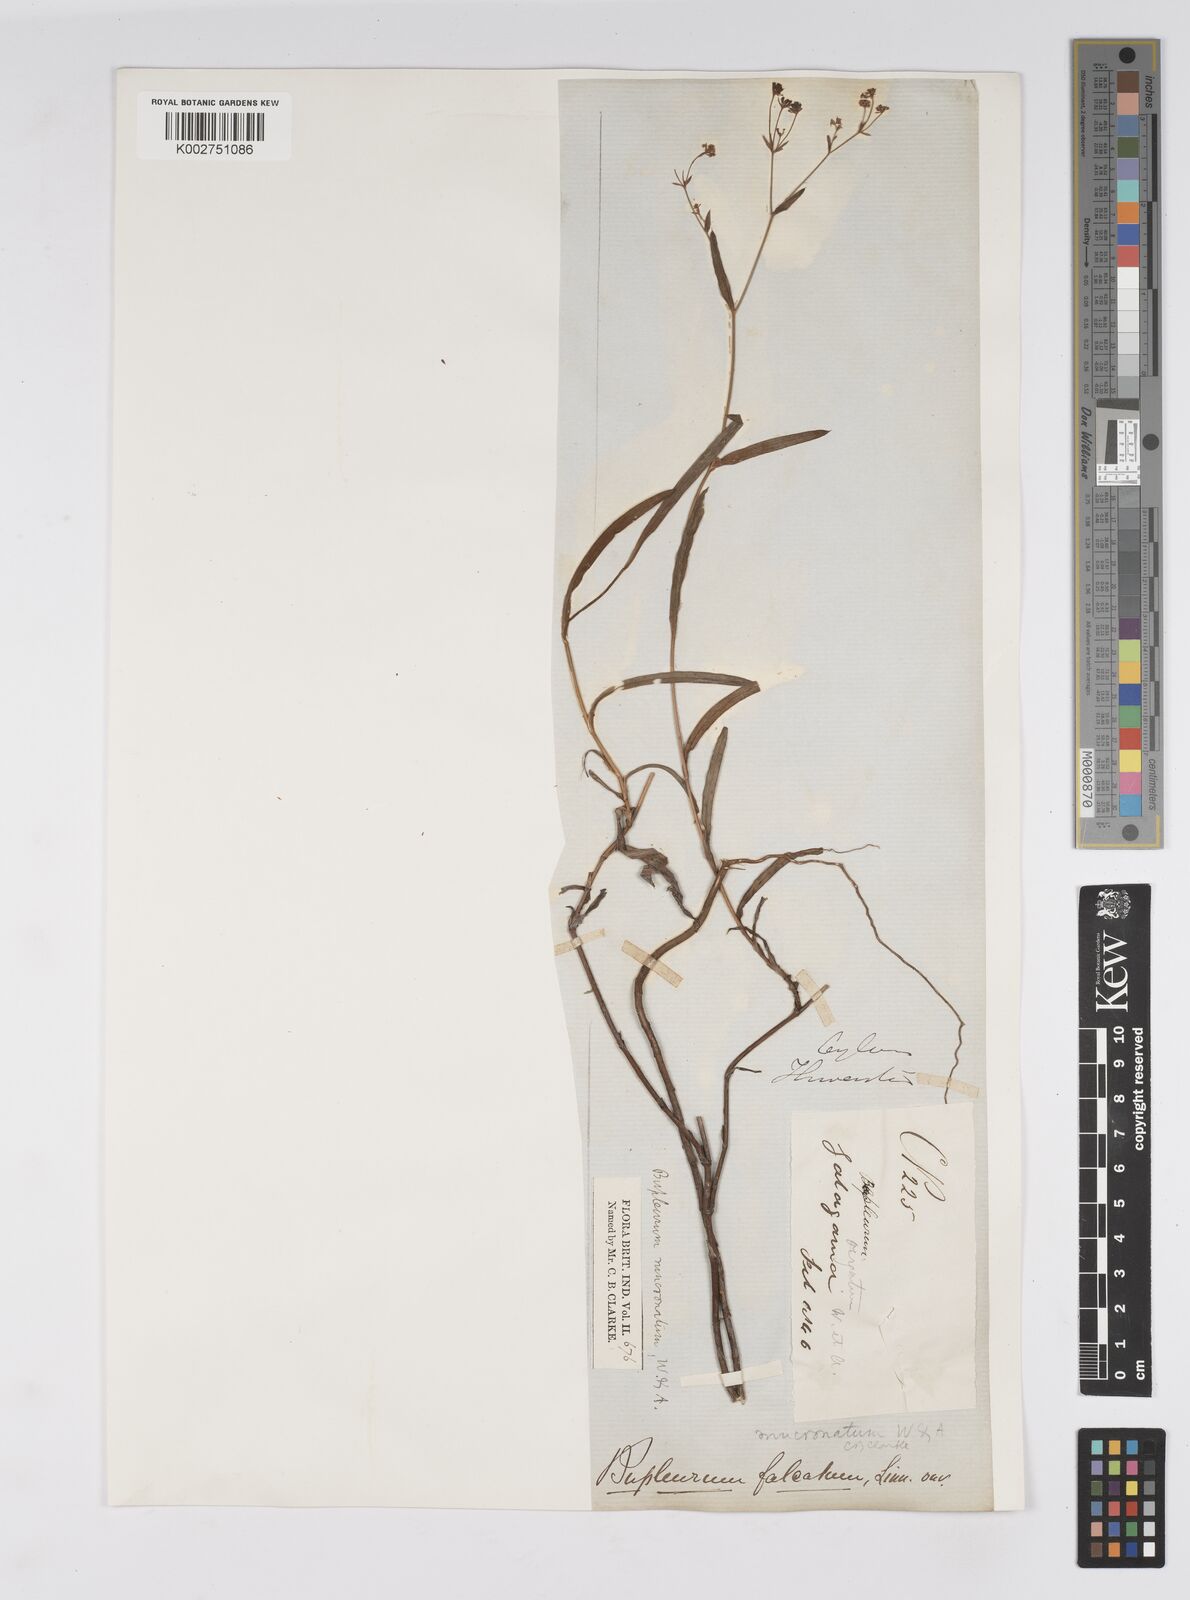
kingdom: Plantae
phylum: Tracheophyta
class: Magnoliopsida
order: Apiales
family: Apiaceae
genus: Bupleurum
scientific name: Bupleurum ramosissimum
